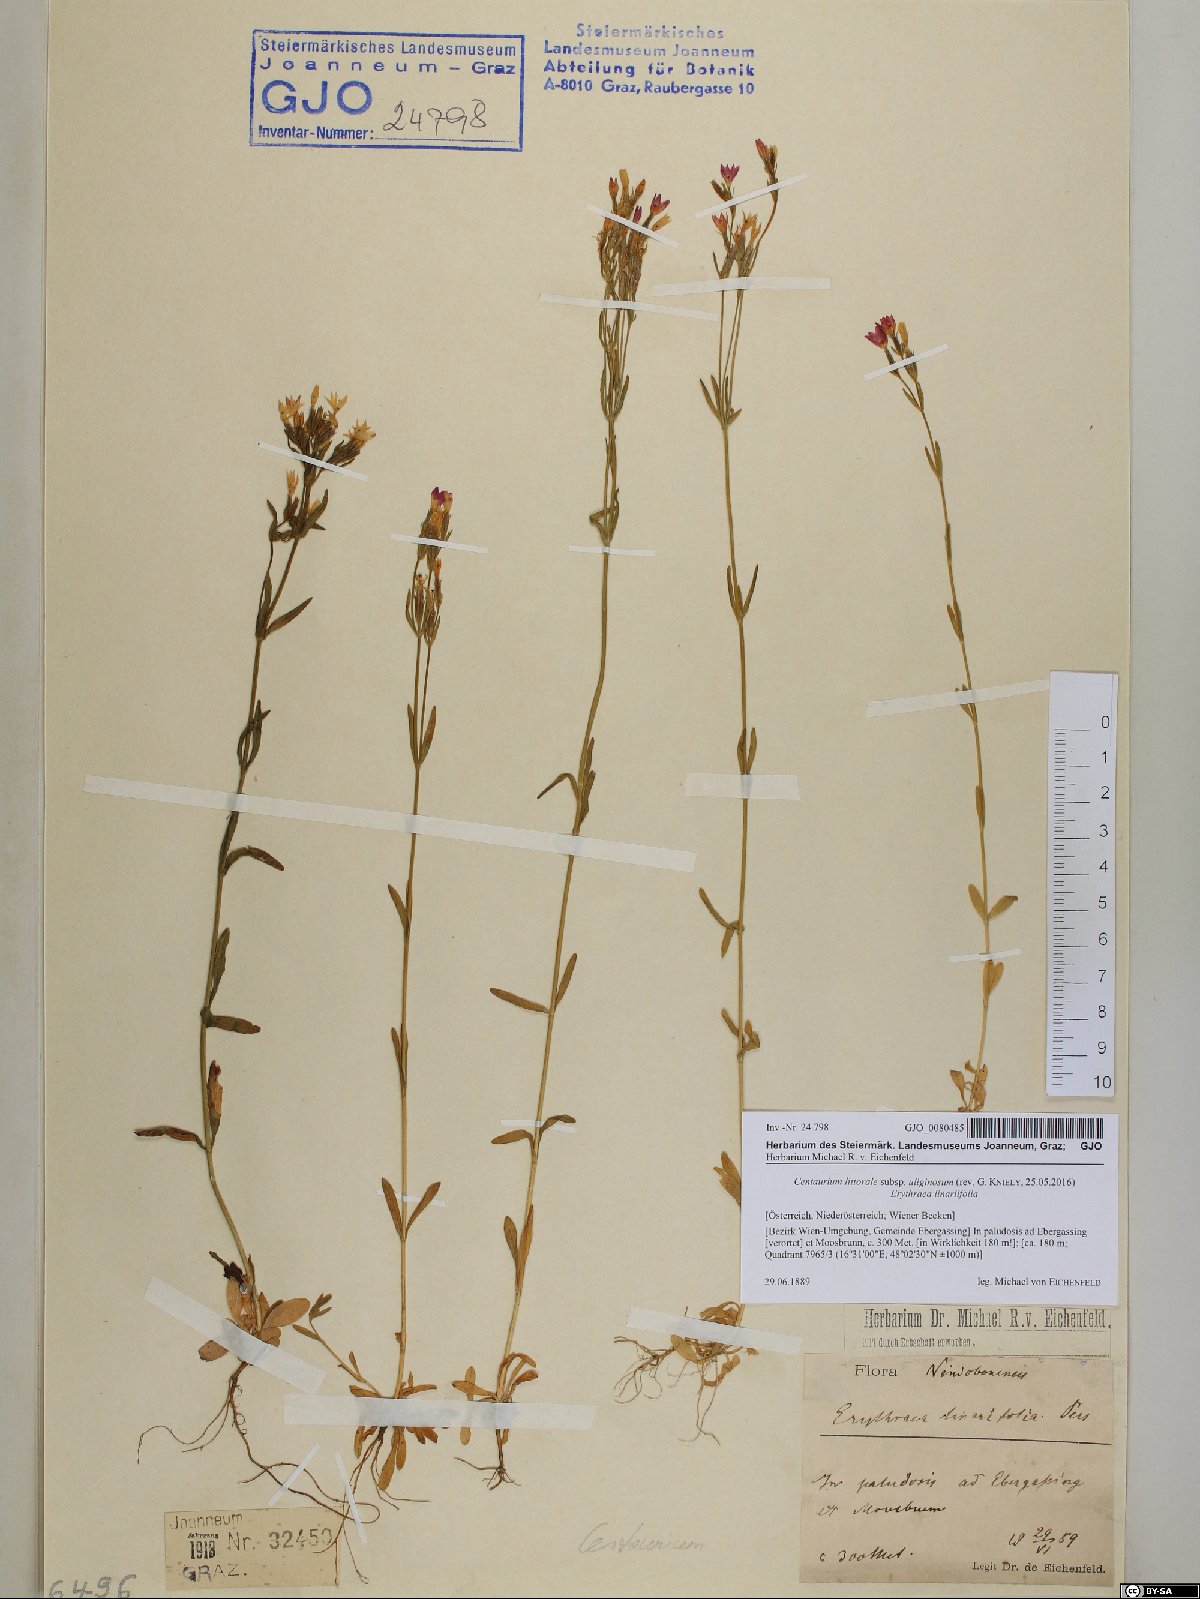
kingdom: Plantae
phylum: Tracheophyta
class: Magnoliopsida
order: Gentianales
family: Gentianaceae
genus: Centaurium
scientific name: Centaurium littorale
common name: Seaside centaury
